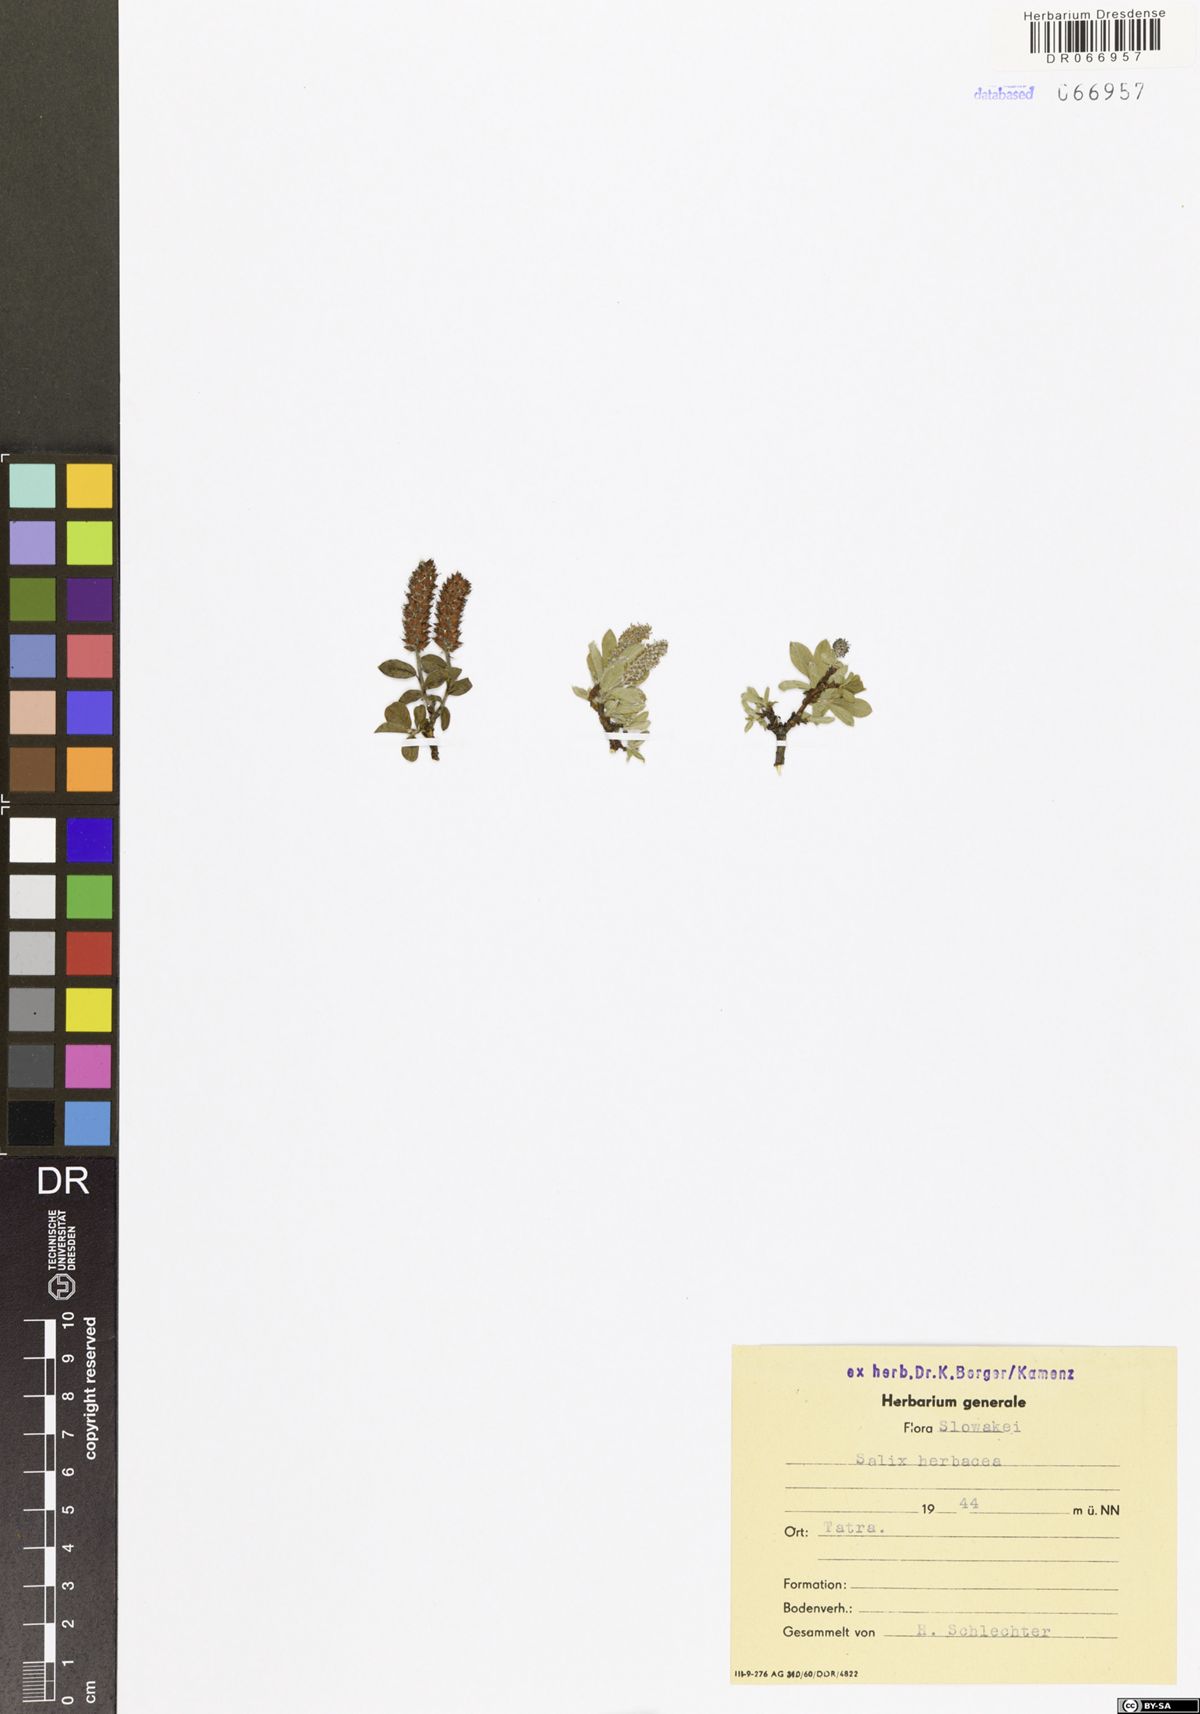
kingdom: Plantae
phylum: Tracheophyta
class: Magnoliopsida
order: Malpighiales
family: Salicaceae
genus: Salix
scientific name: Salix herbacea
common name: Dwarf willow
